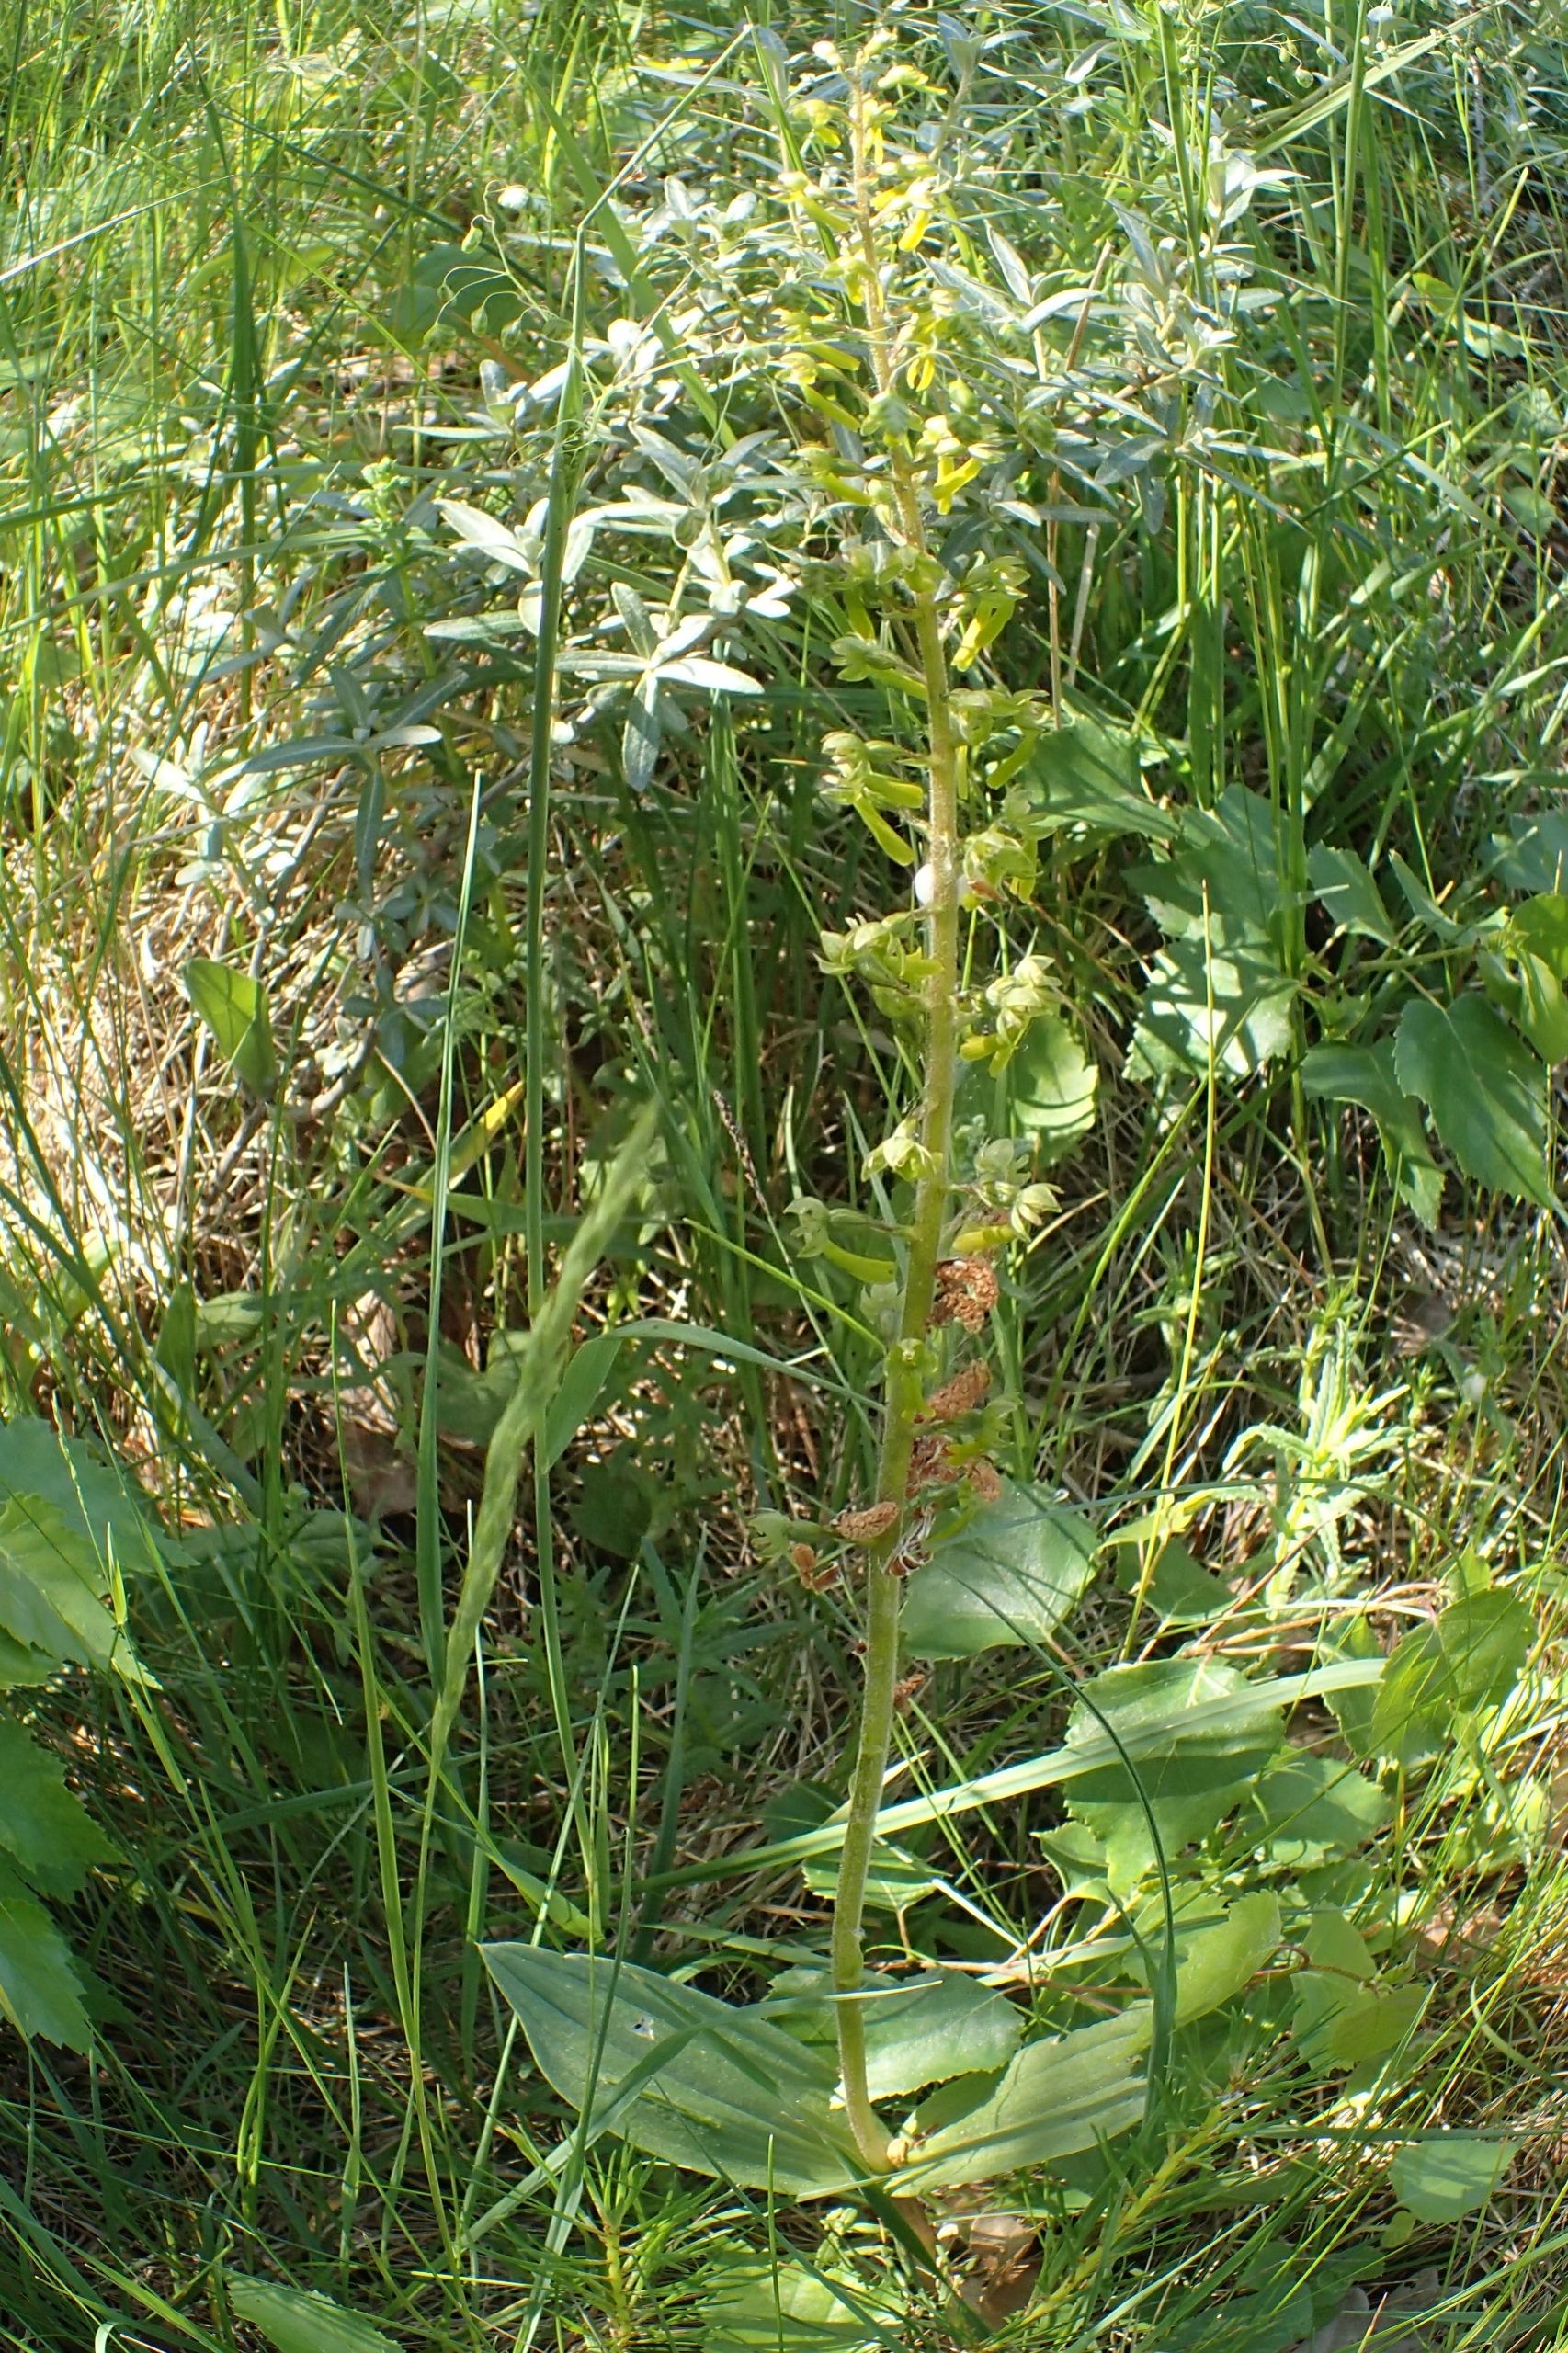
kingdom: Plantae
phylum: Tracheophyta
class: Liliopsida
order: Asparagales
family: Orchidaceae
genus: Neottia
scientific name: Neottia ovata
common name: Ægbladet fliglæbe
